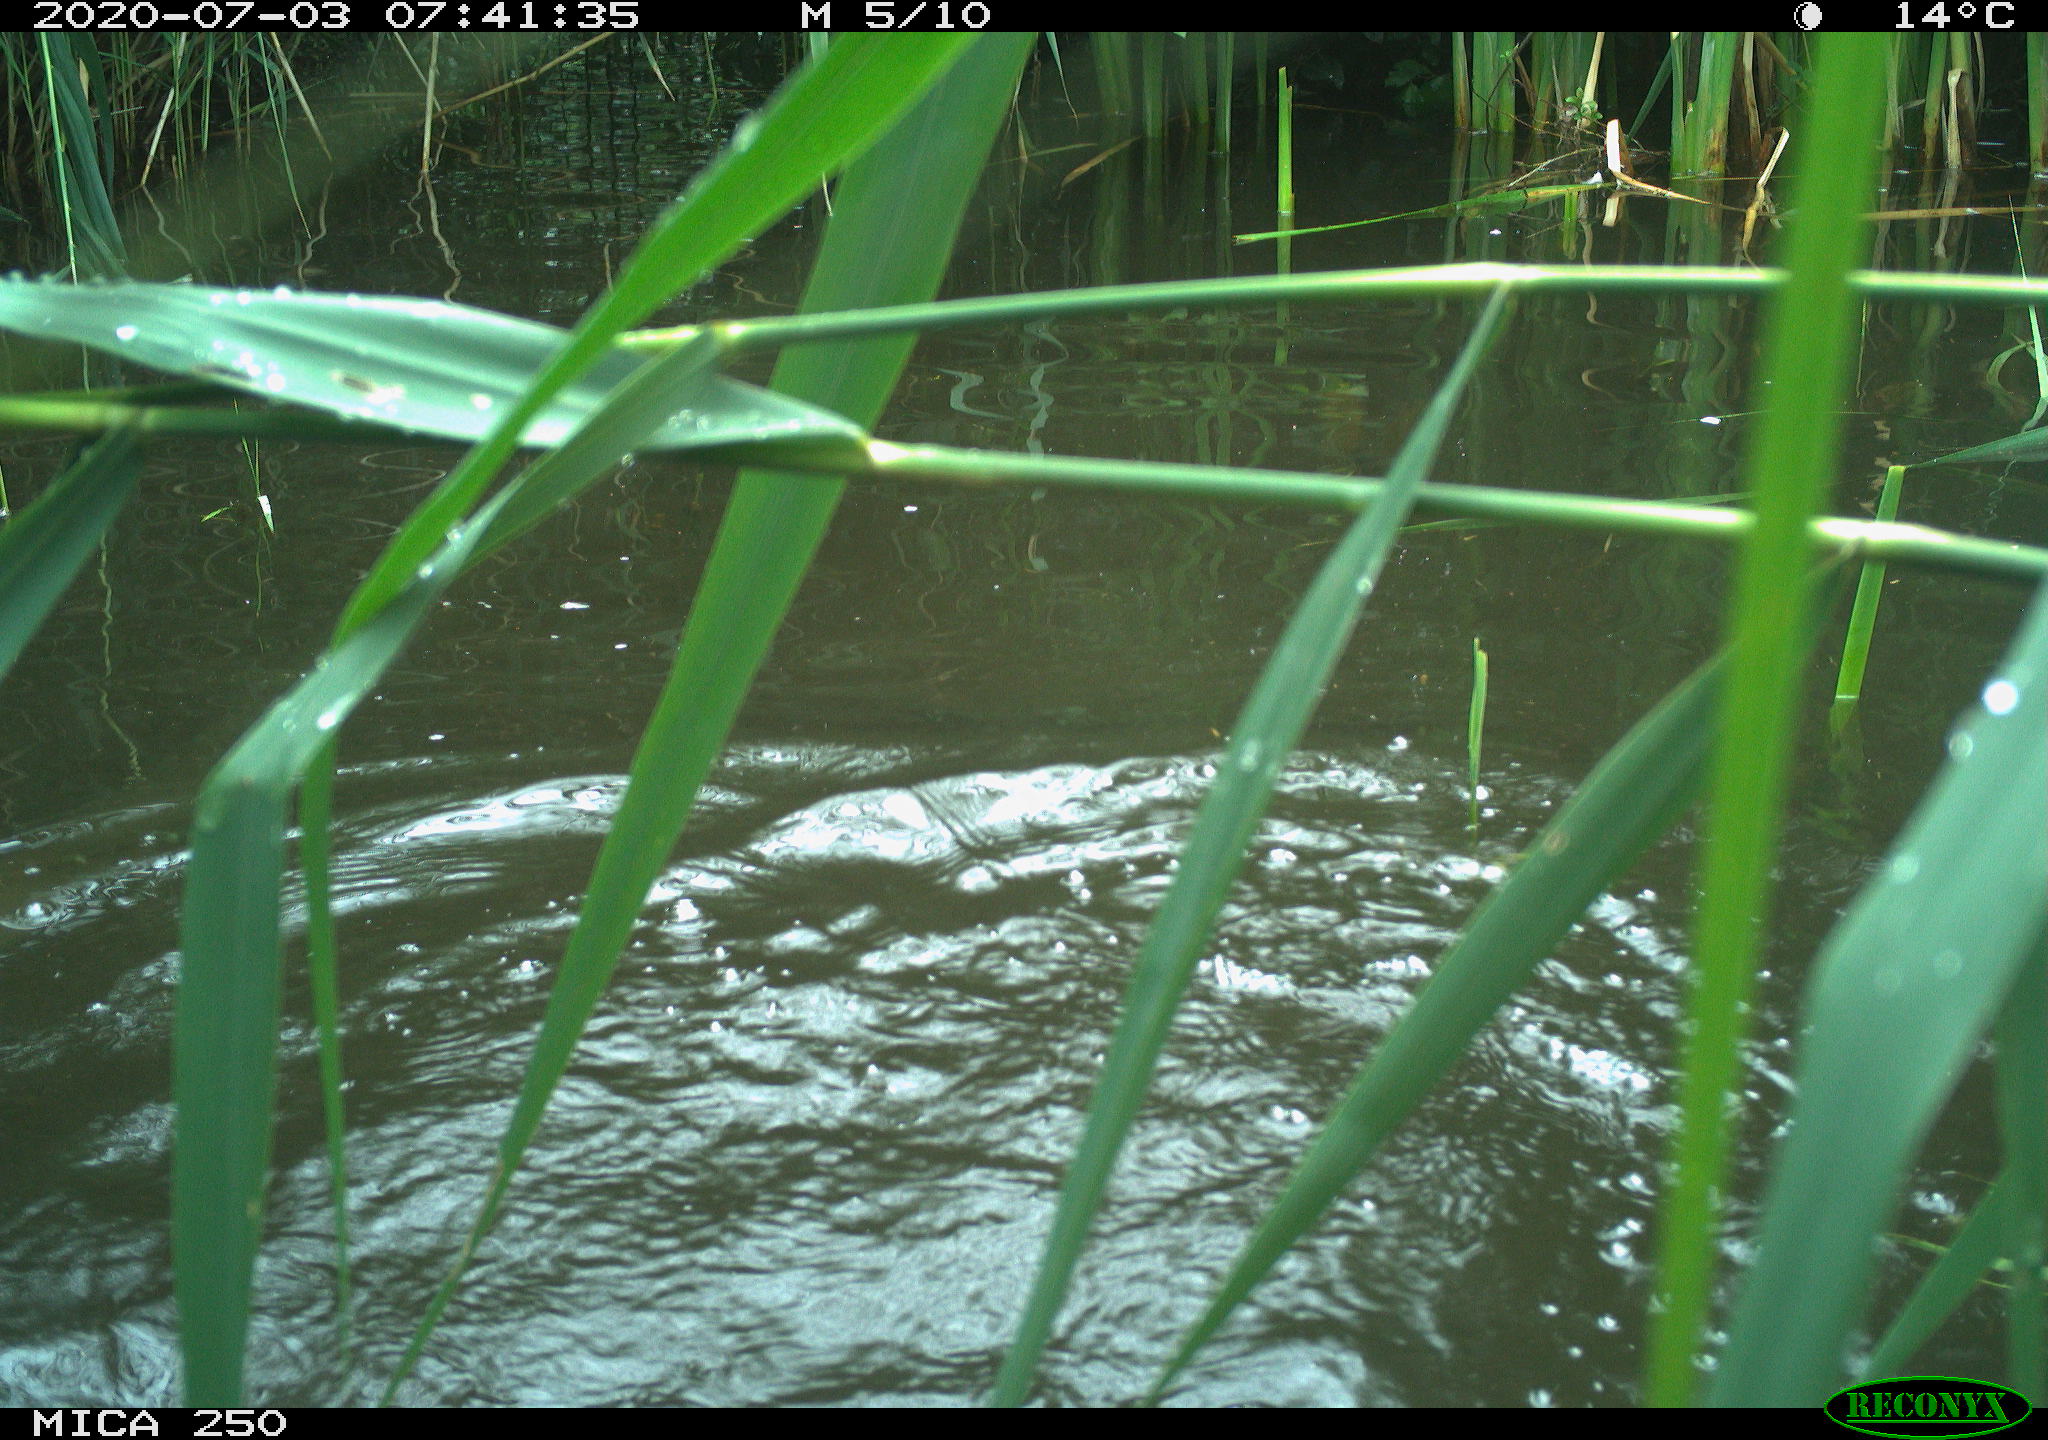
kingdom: Animalia
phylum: Chordata
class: Aves
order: Podicipediformes
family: Podicipedidae
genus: Podiceps
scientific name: Podiceps cristatus
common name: Great crested grebe
